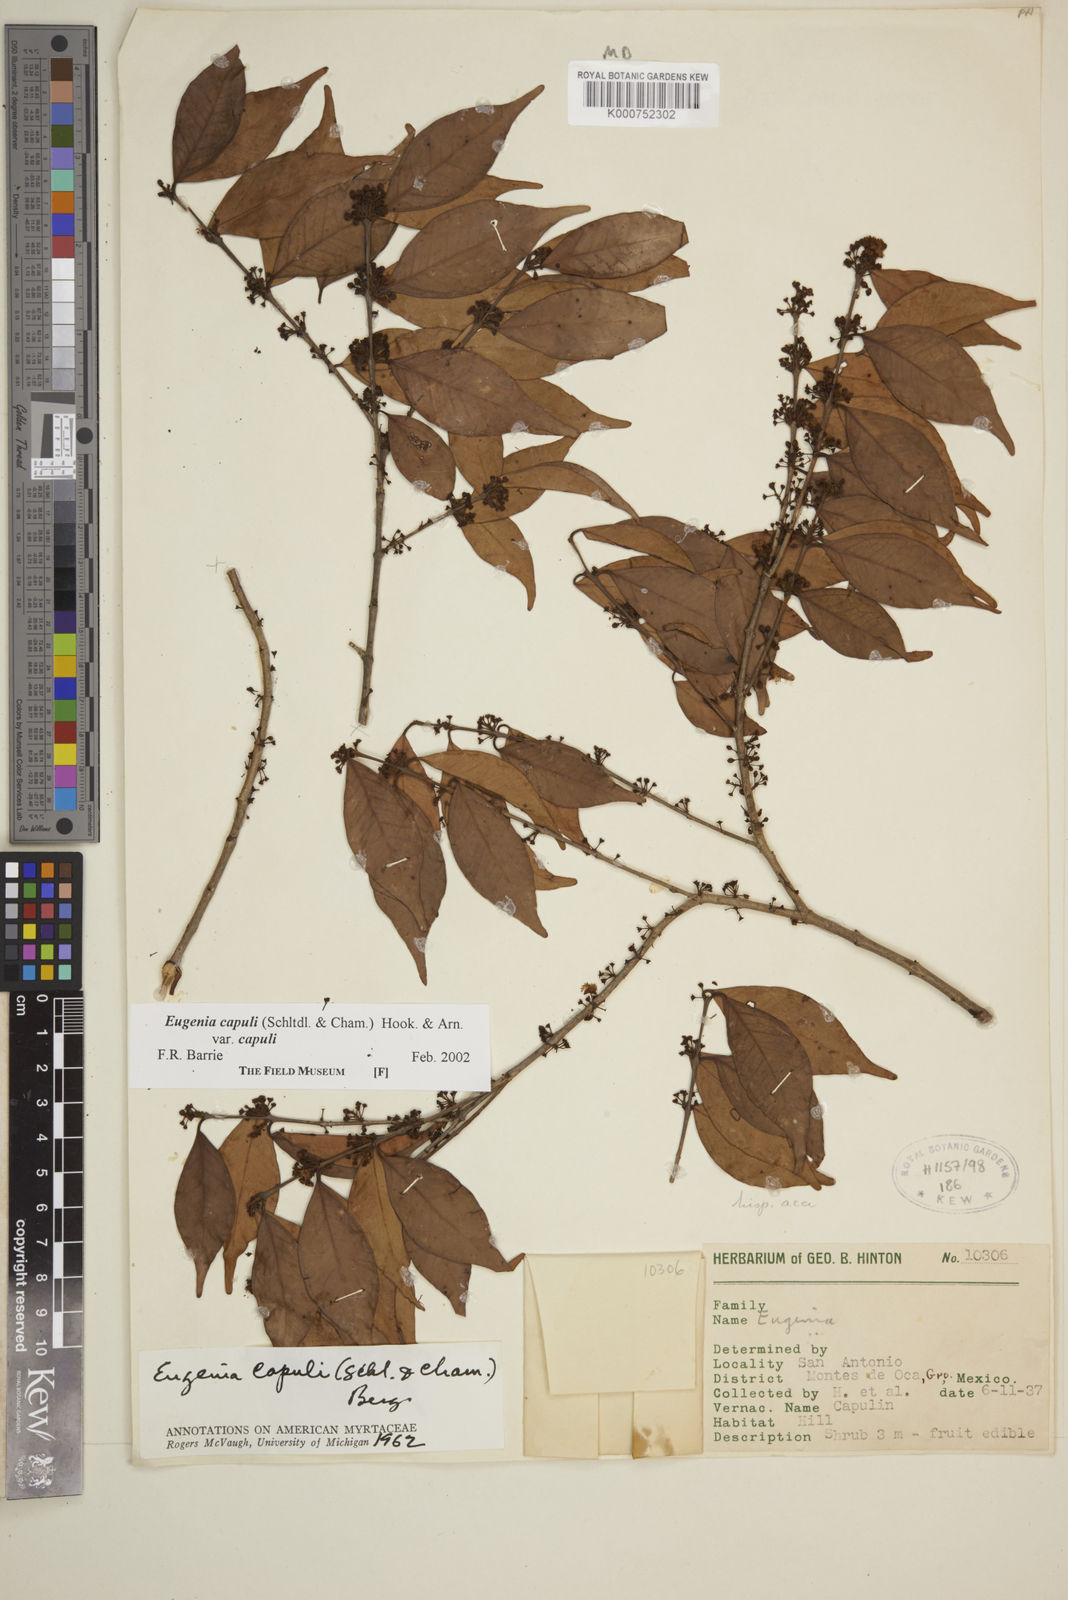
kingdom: Plantae
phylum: Tracheophyta
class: Magnoliopsida
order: Myrtales
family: Myrtaceae
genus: Eugenia
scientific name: Eugenia capuli
